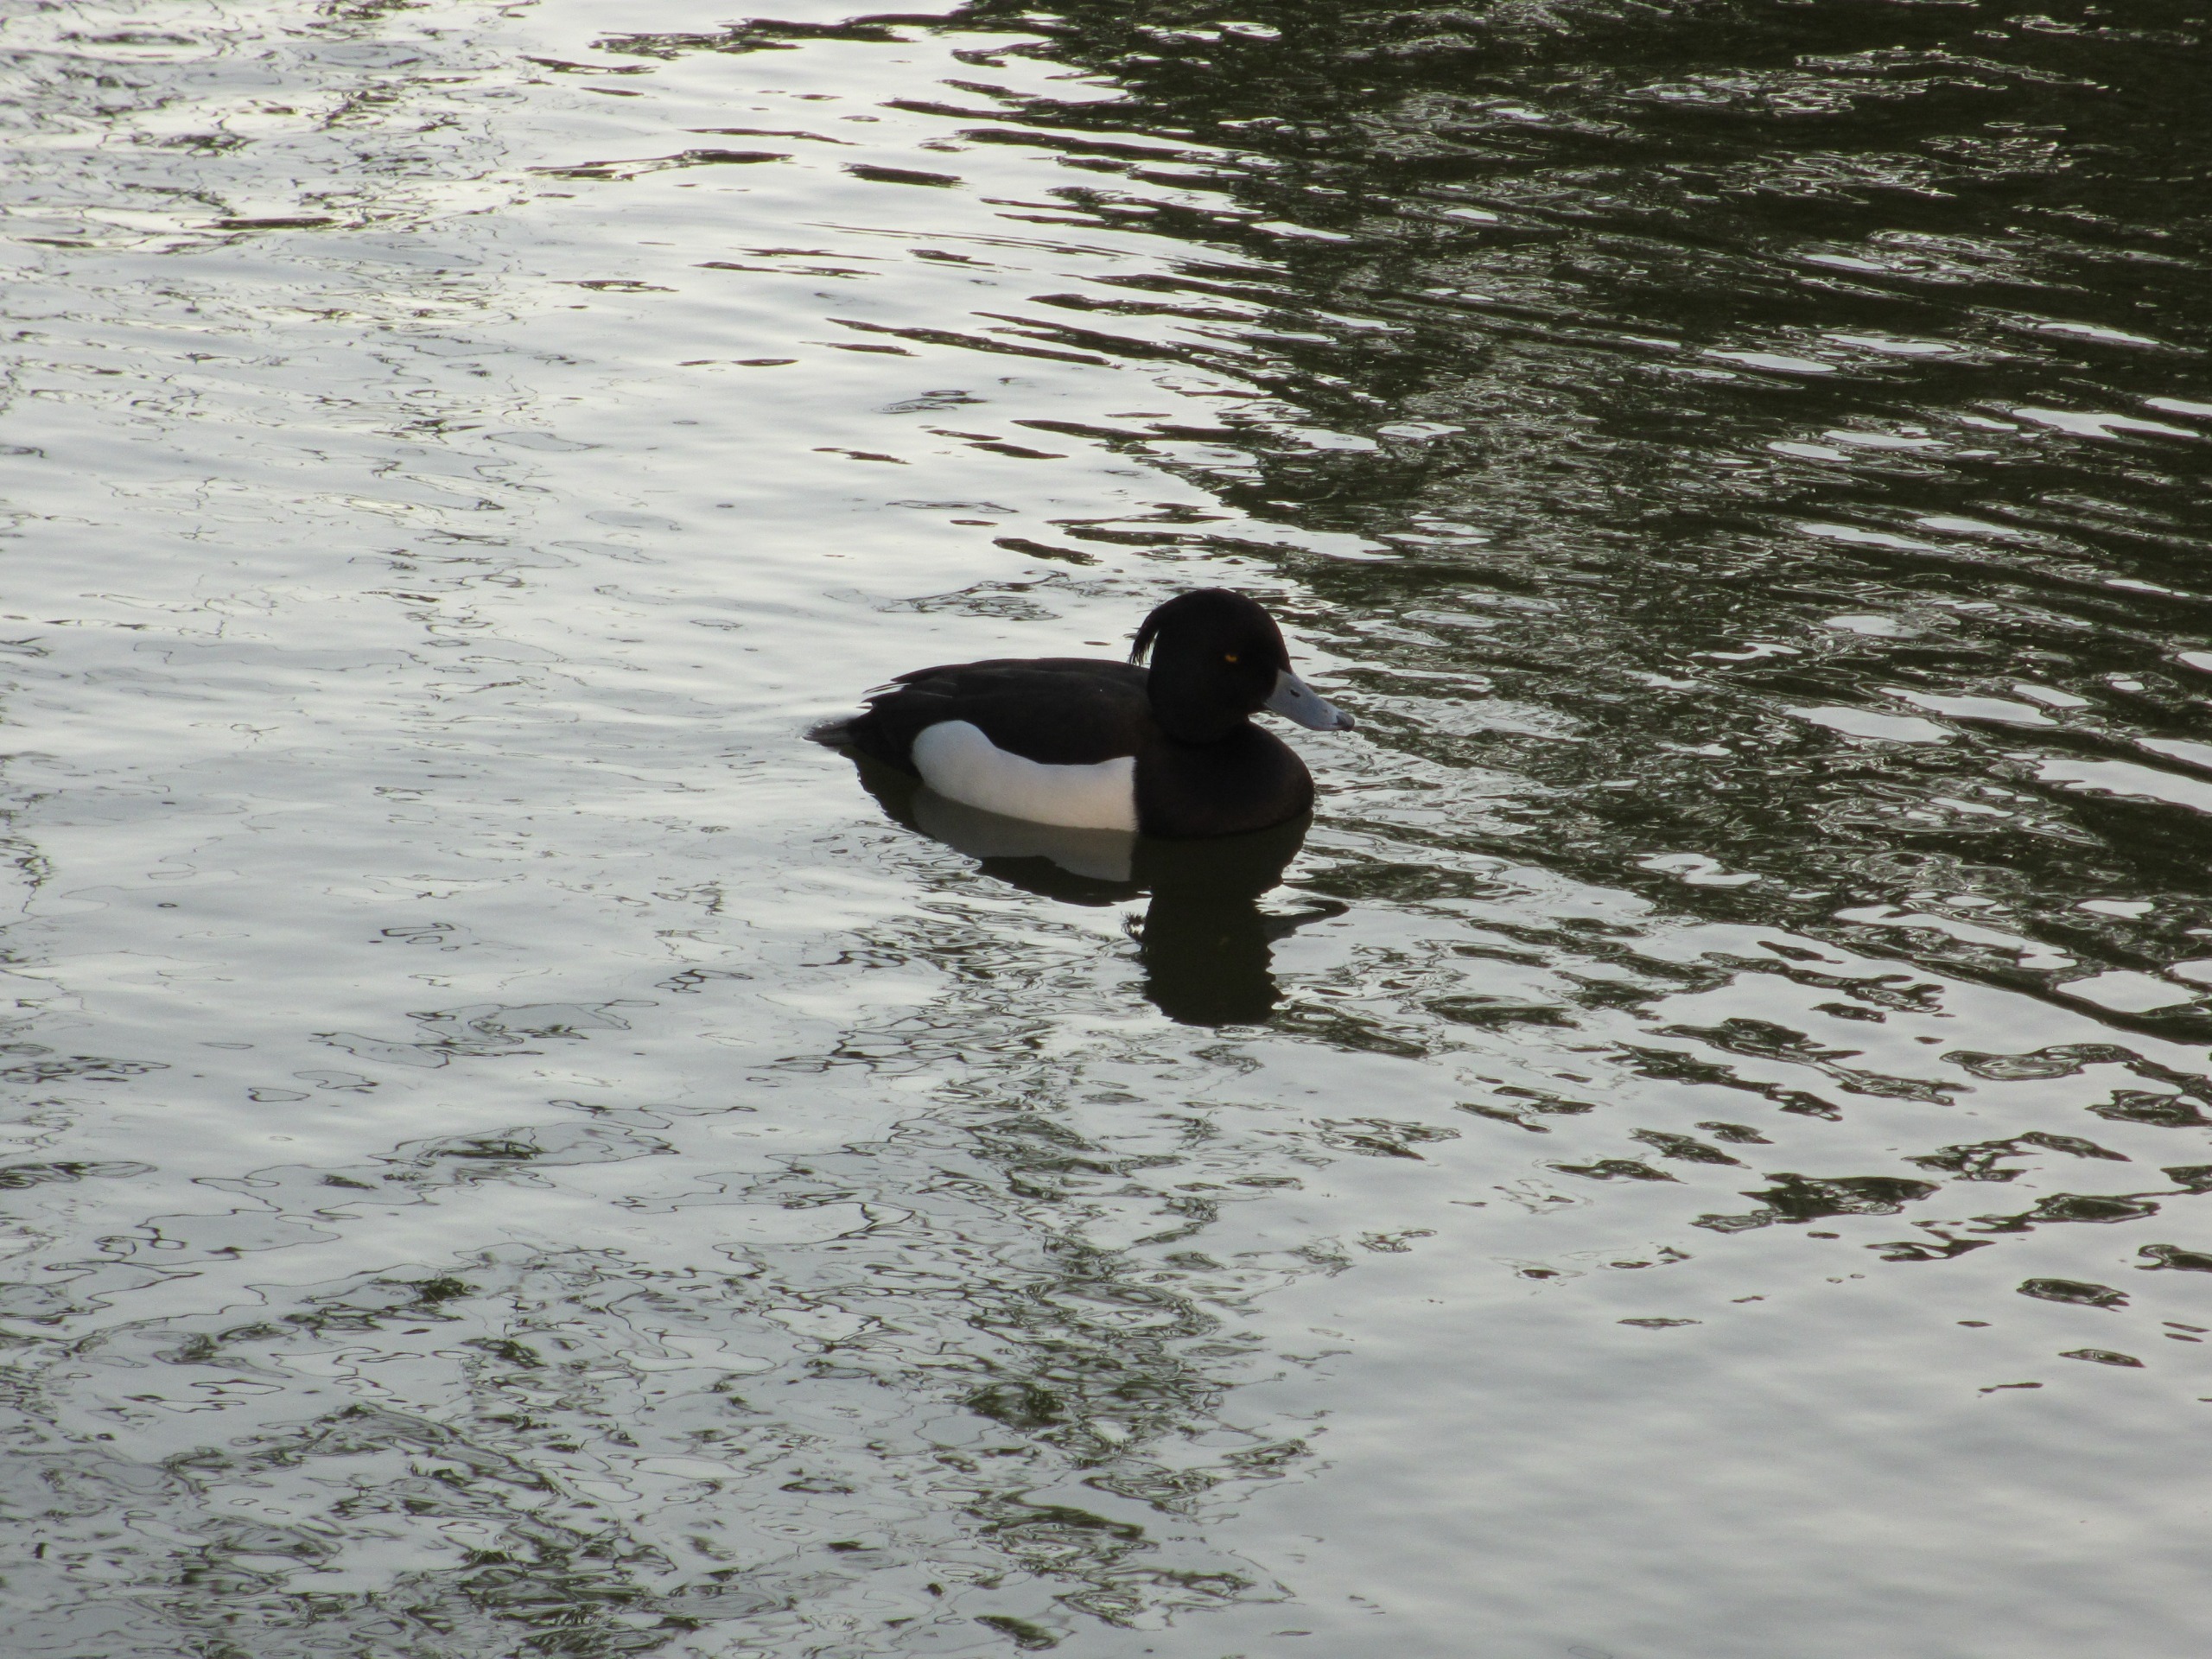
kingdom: Animalia
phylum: Chordata
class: Aves
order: Anseriformes
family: Anatidae
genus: Aythya
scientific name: Aythya fuligula
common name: Troldand
